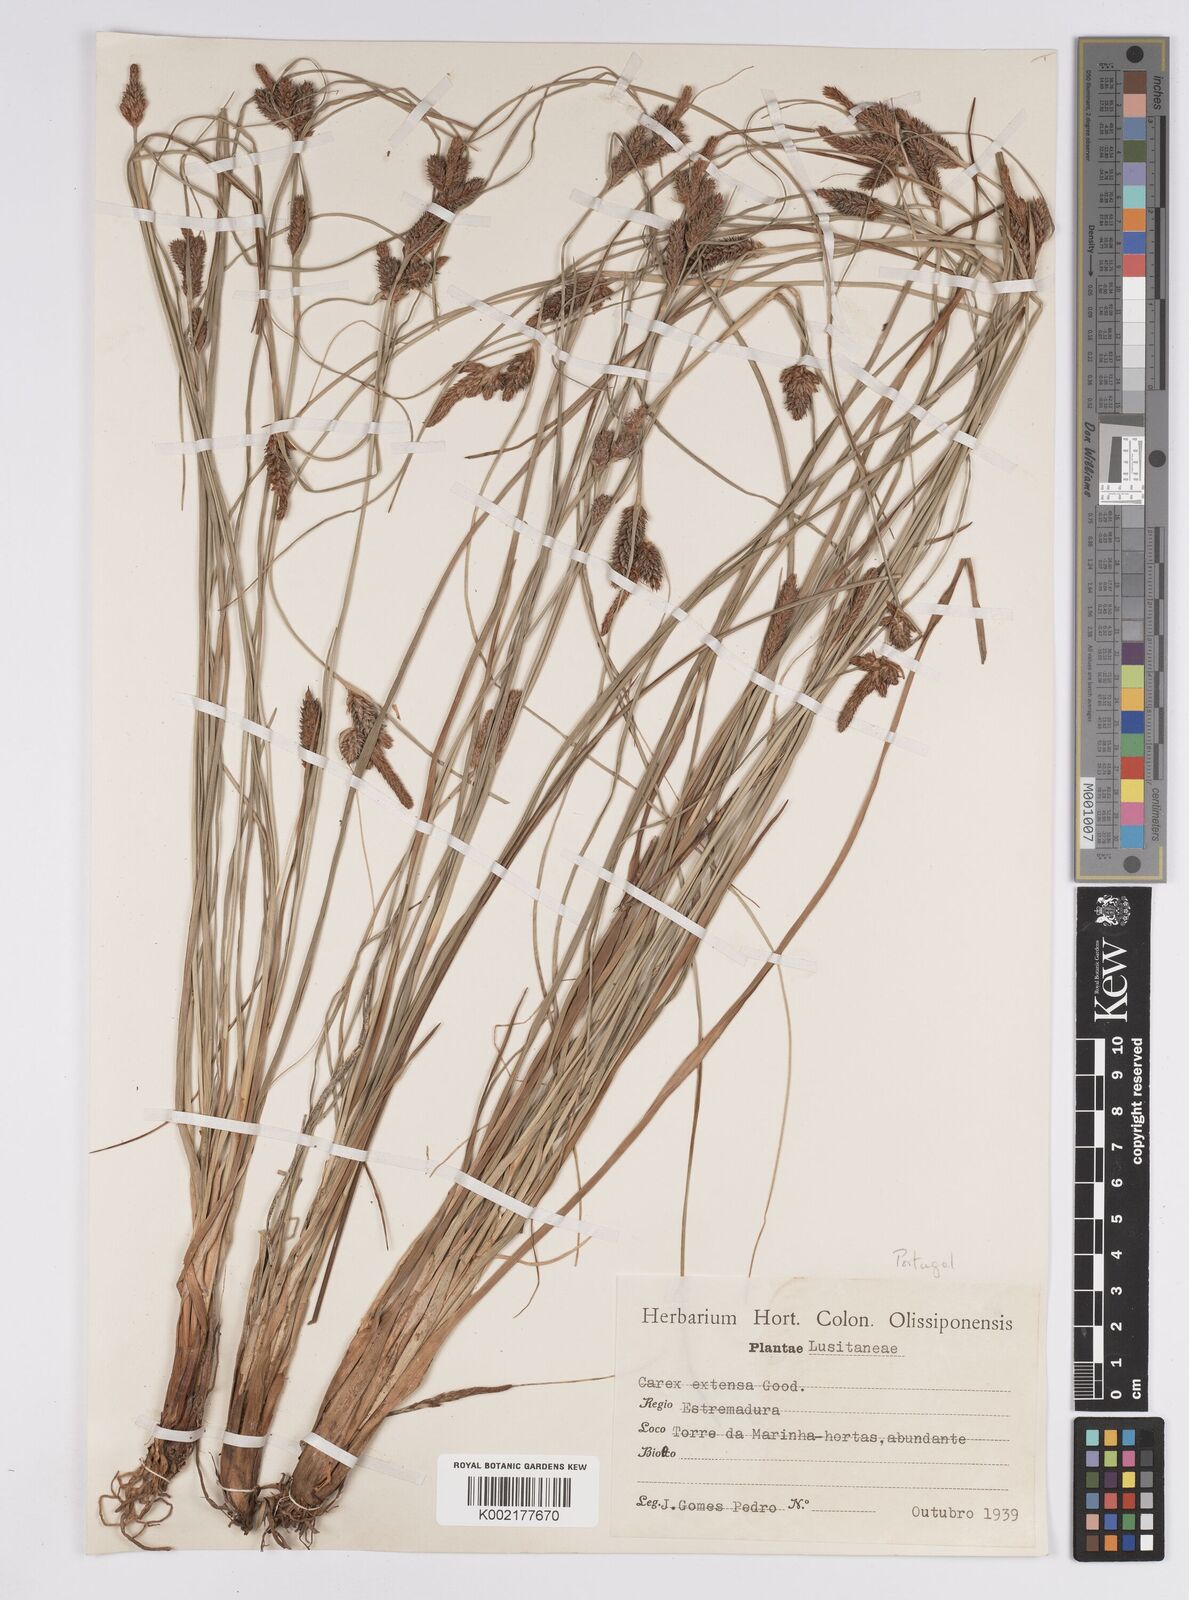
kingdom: Plantae
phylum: Tracheophyta
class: Liliopsida
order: Poales
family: Cyperaceae
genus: Carex
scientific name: Carex extensa
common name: Long-bracted sedge
